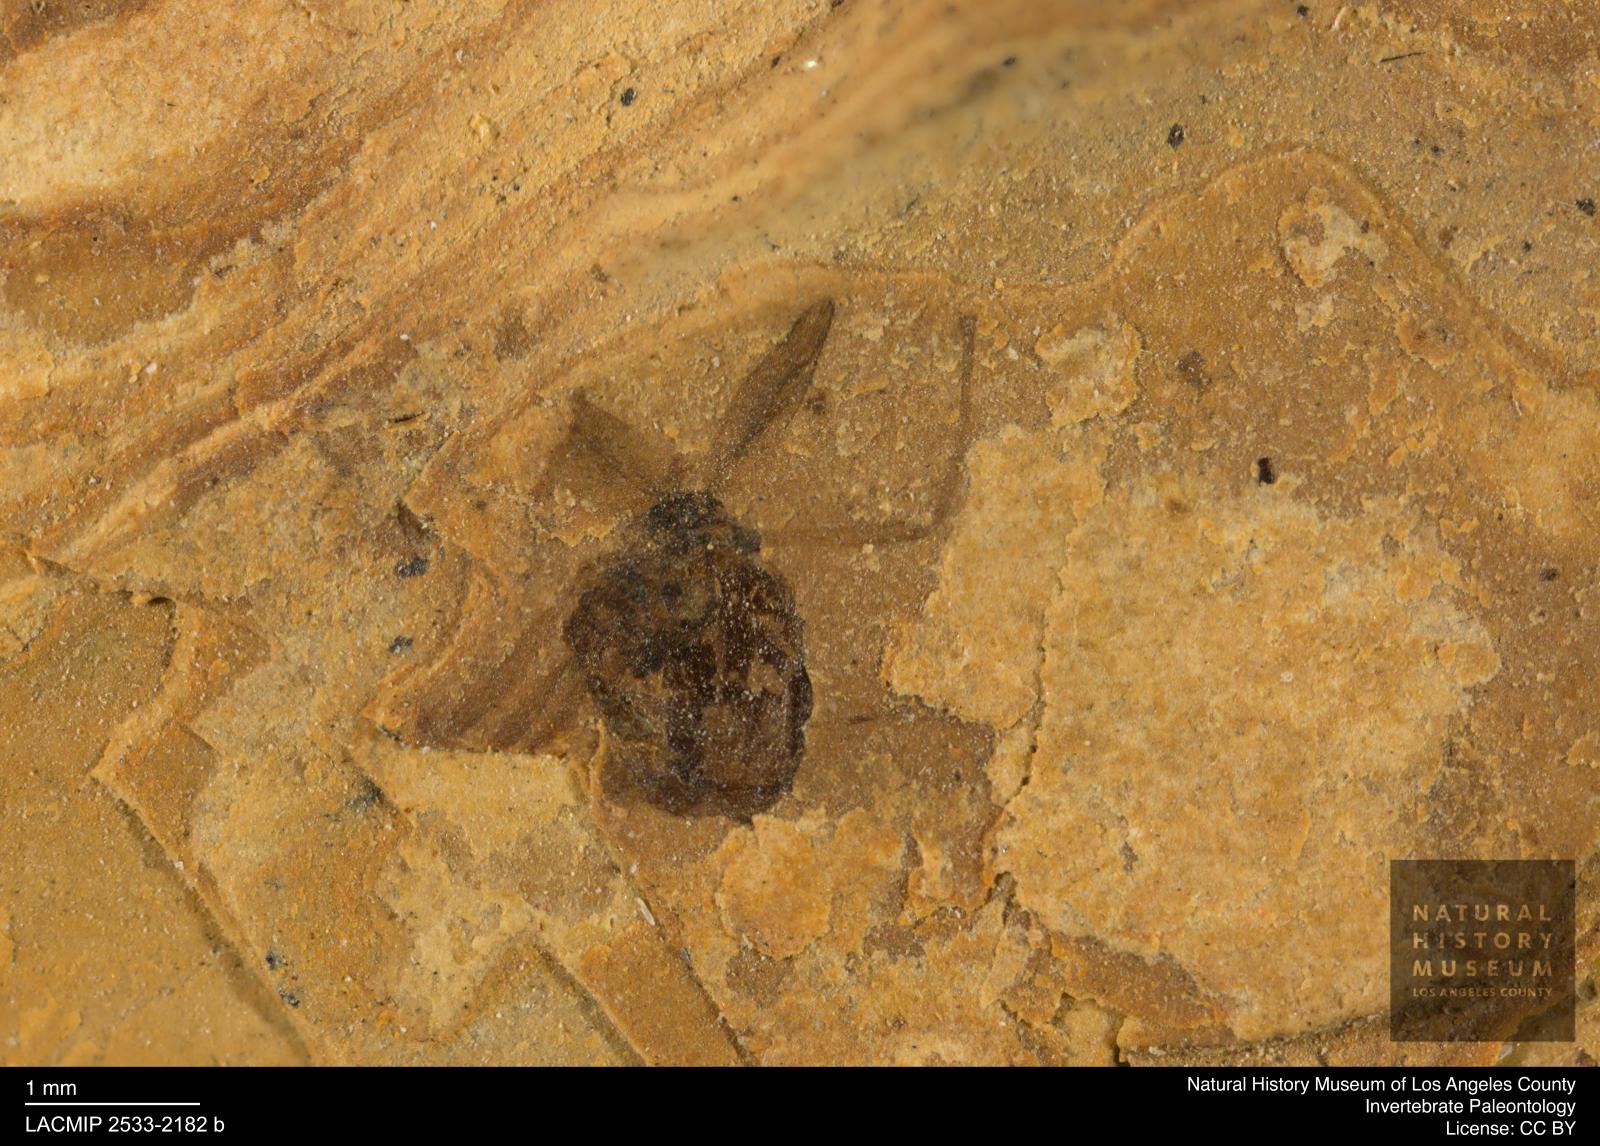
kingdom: Animalia
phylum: Arthropoda
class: Insecta
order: Diptera
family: Chironomidae
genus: Procladius
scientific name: Procladius
